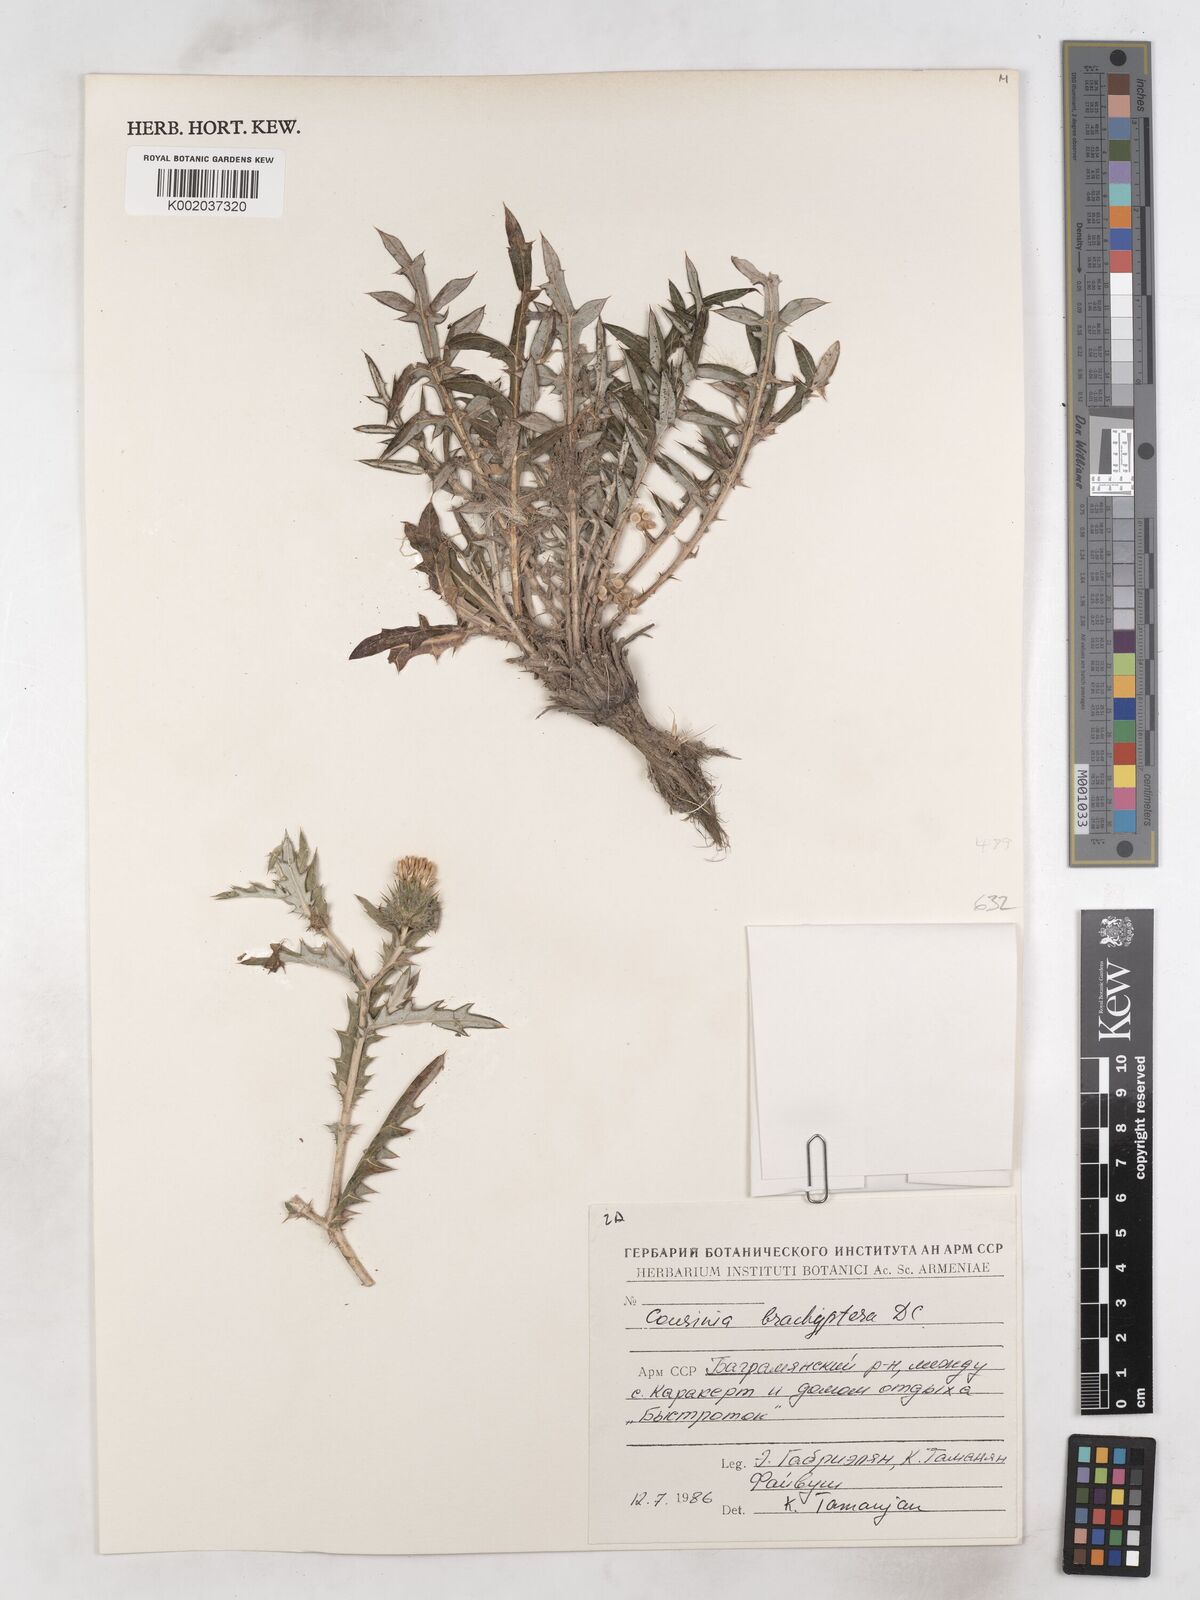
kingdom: Plantae
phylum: Tracheophyta
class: Magnoliopsida
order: Asterales
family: Asteraceae
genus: Cousinia
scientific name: Cousinia brachyptera
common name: Short-winged cousinia
